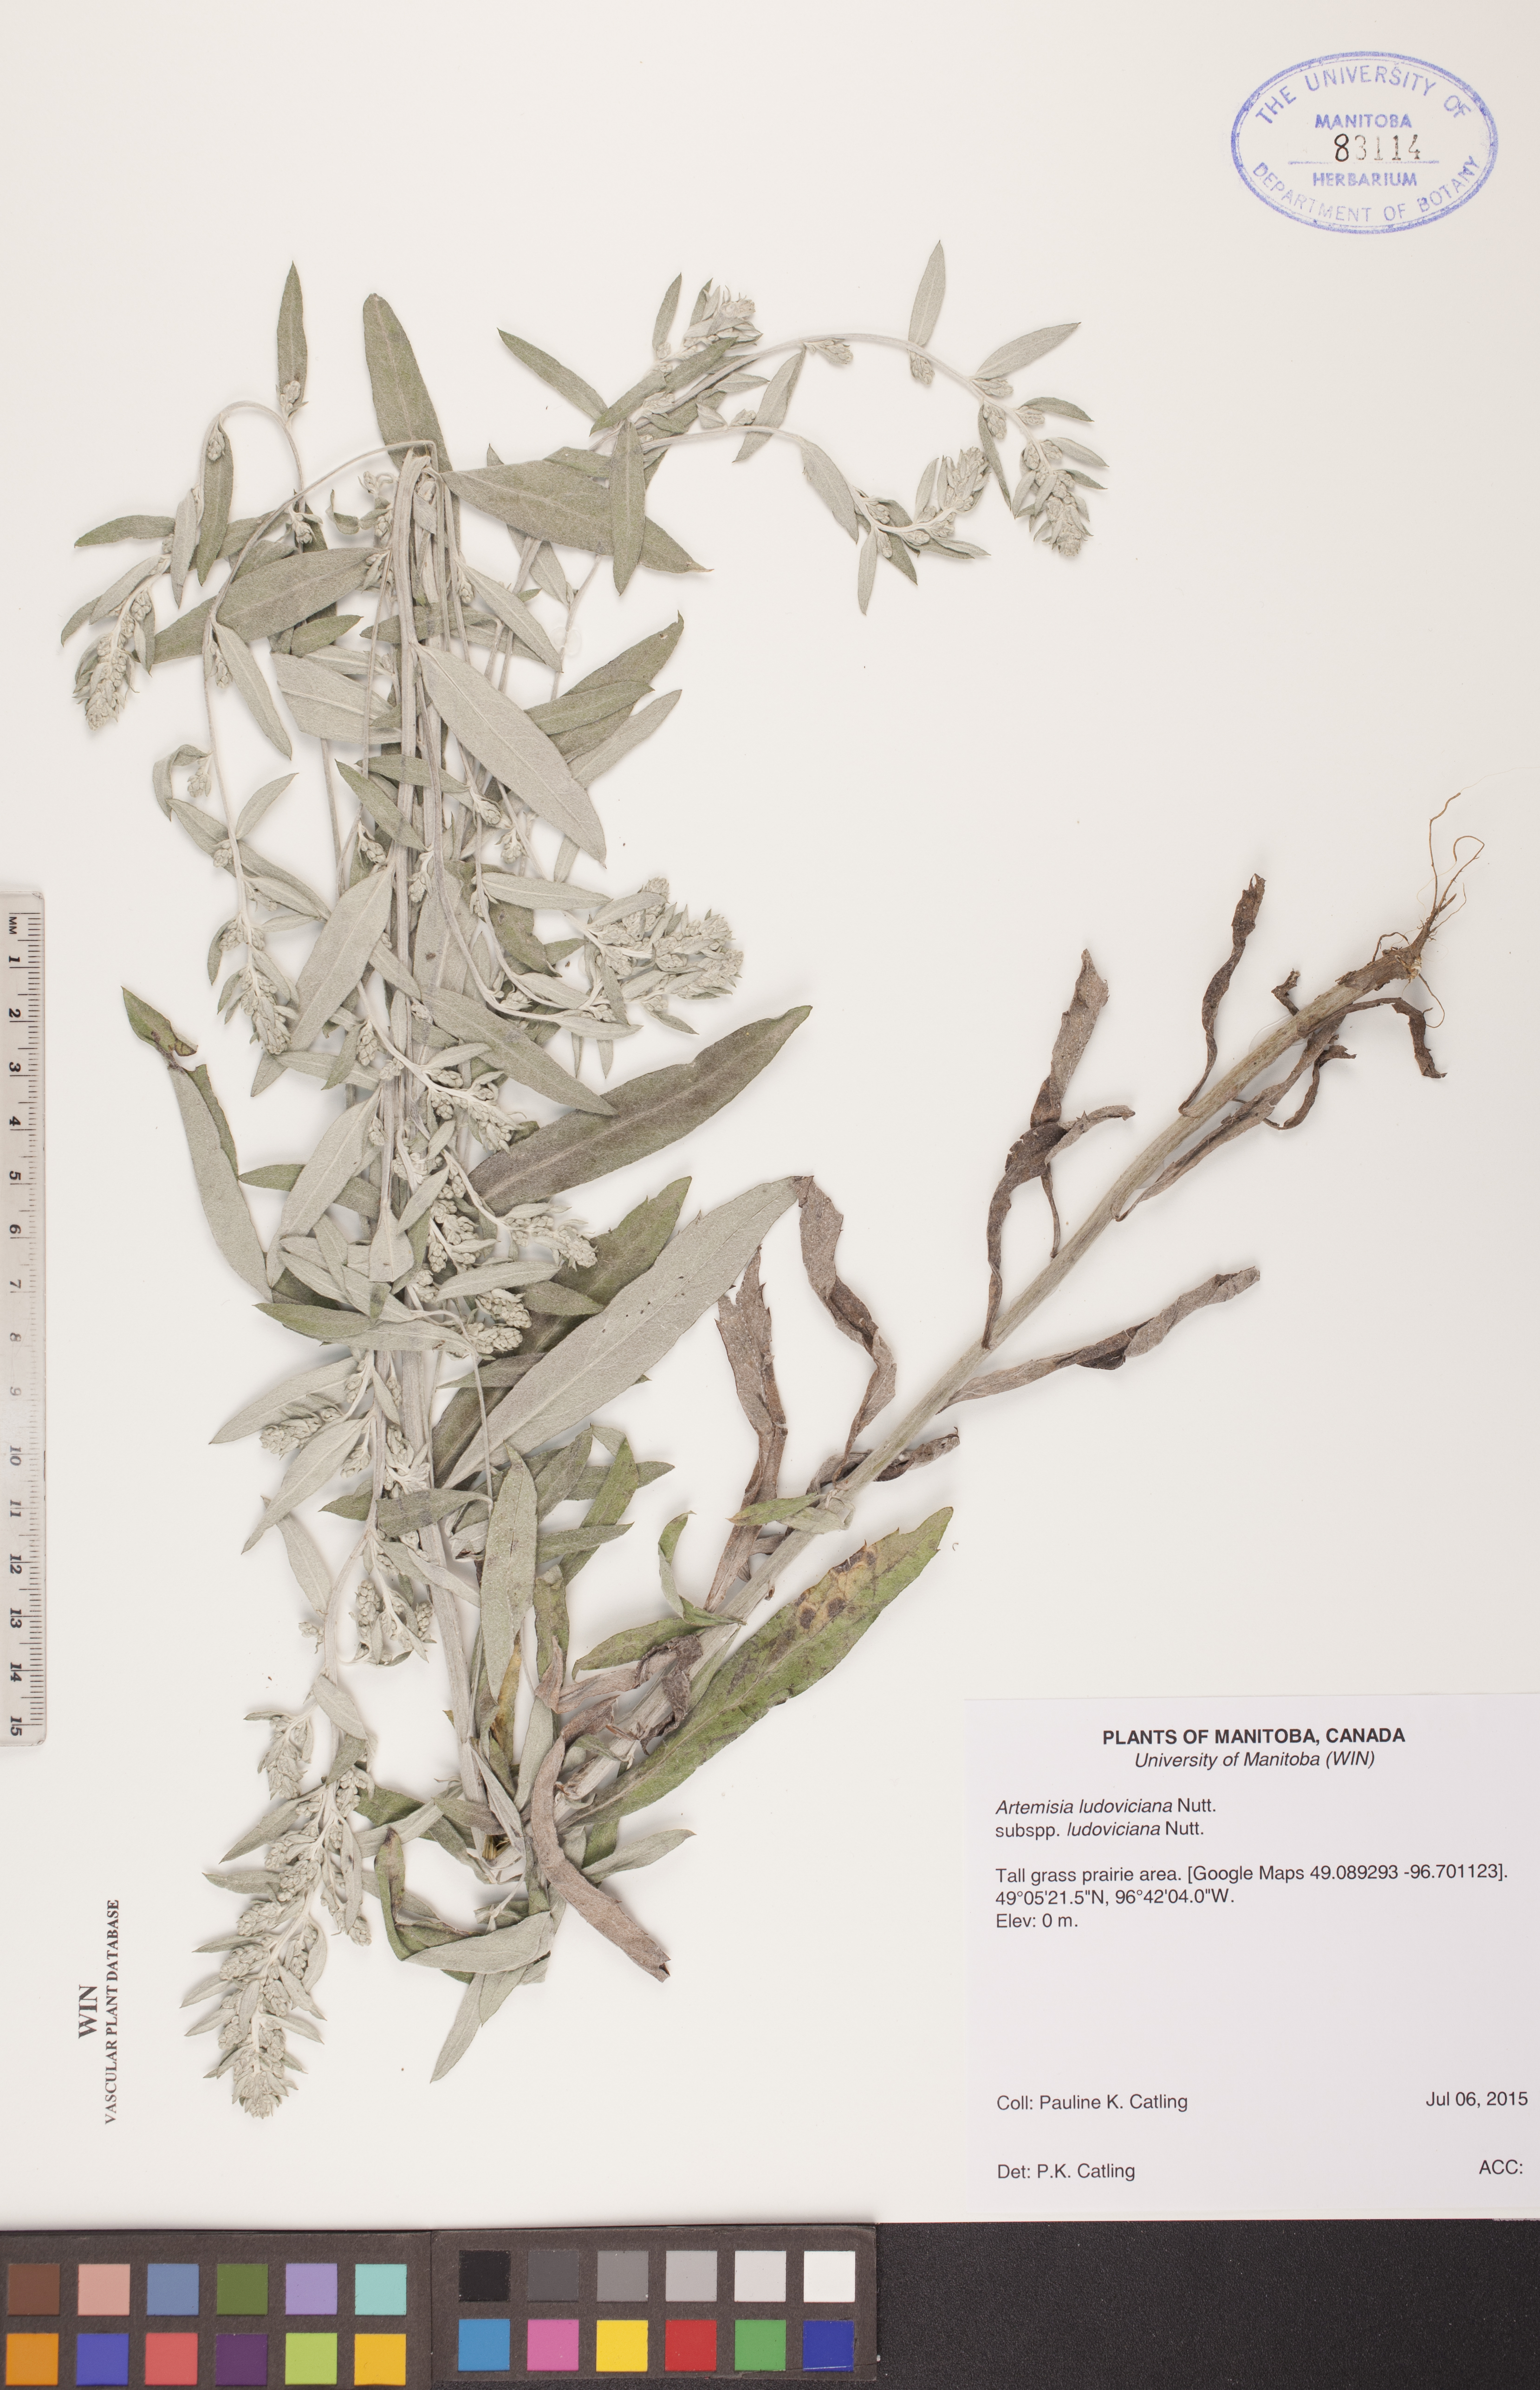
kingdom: Plantae
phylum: Tracheophyta
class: Magnoliopsida
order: Asterales
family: Asteraceae
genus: Artemisia
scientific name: Artemisia ludoviciana
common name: Western mugwort
